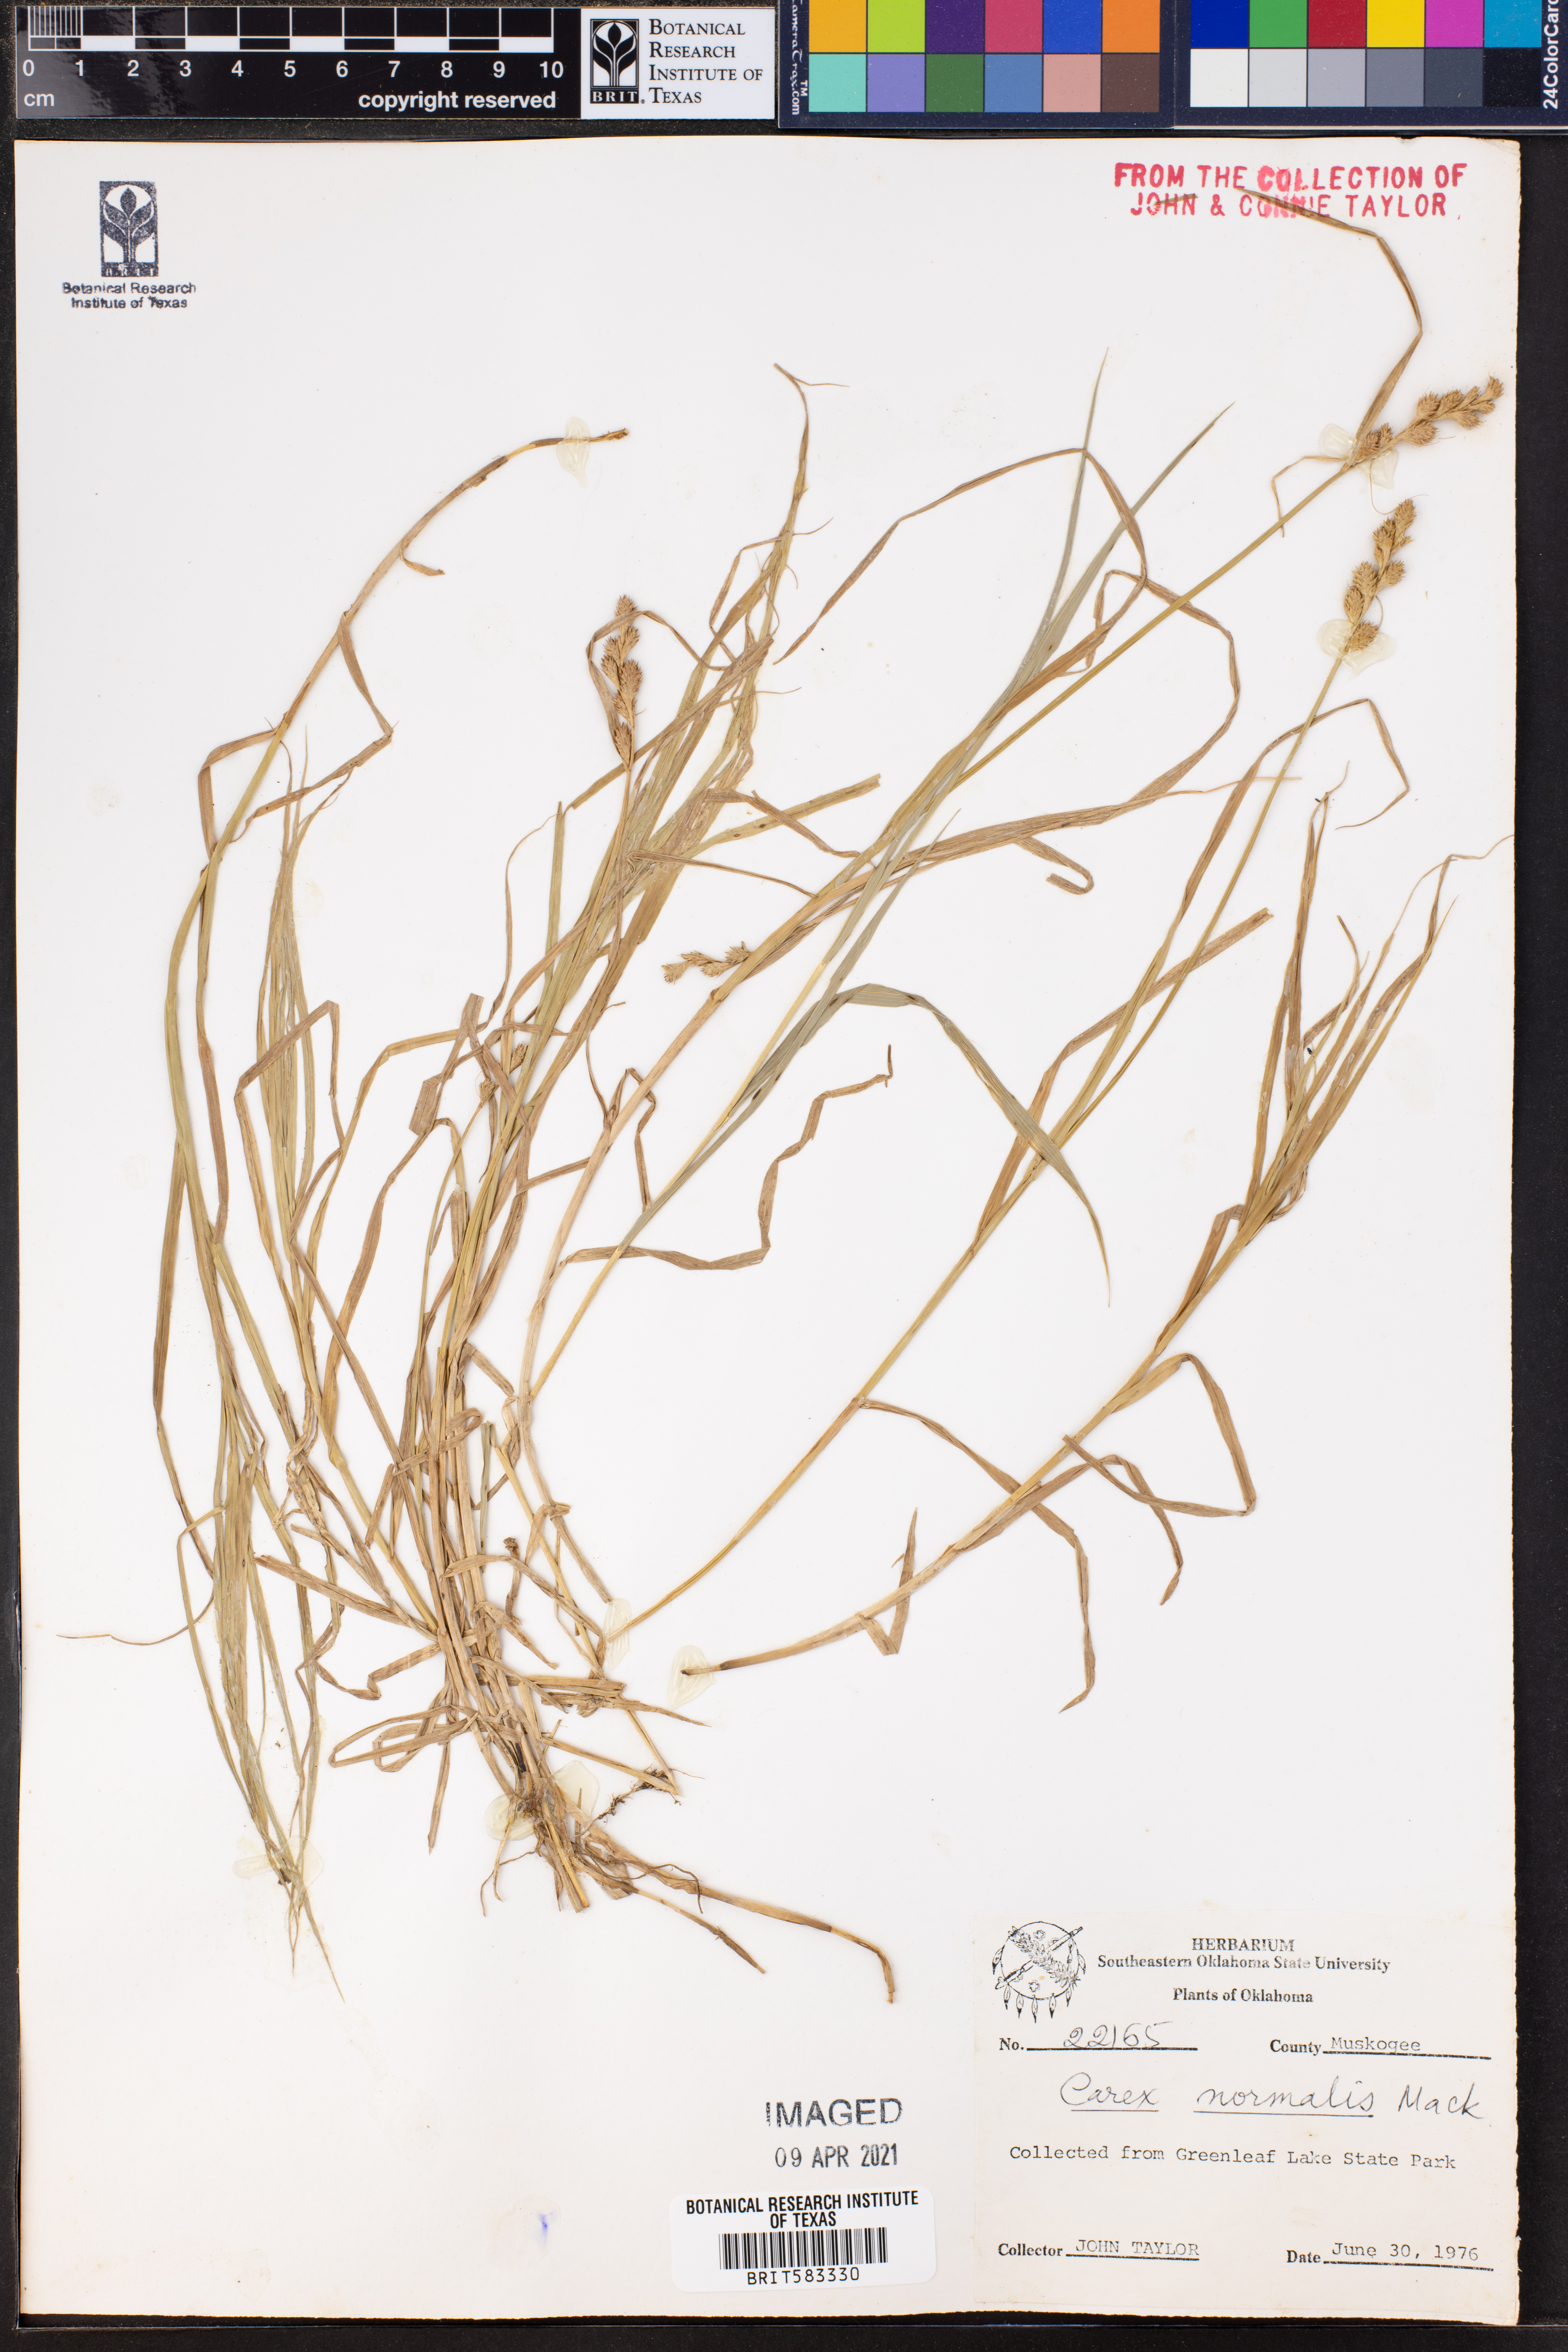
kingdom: Plantae
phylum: Tracheophyta
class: Liliopsida
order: Poales
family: Cyperaceae
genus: Carex
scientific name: Carex normalis
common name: Greater straw sedge
